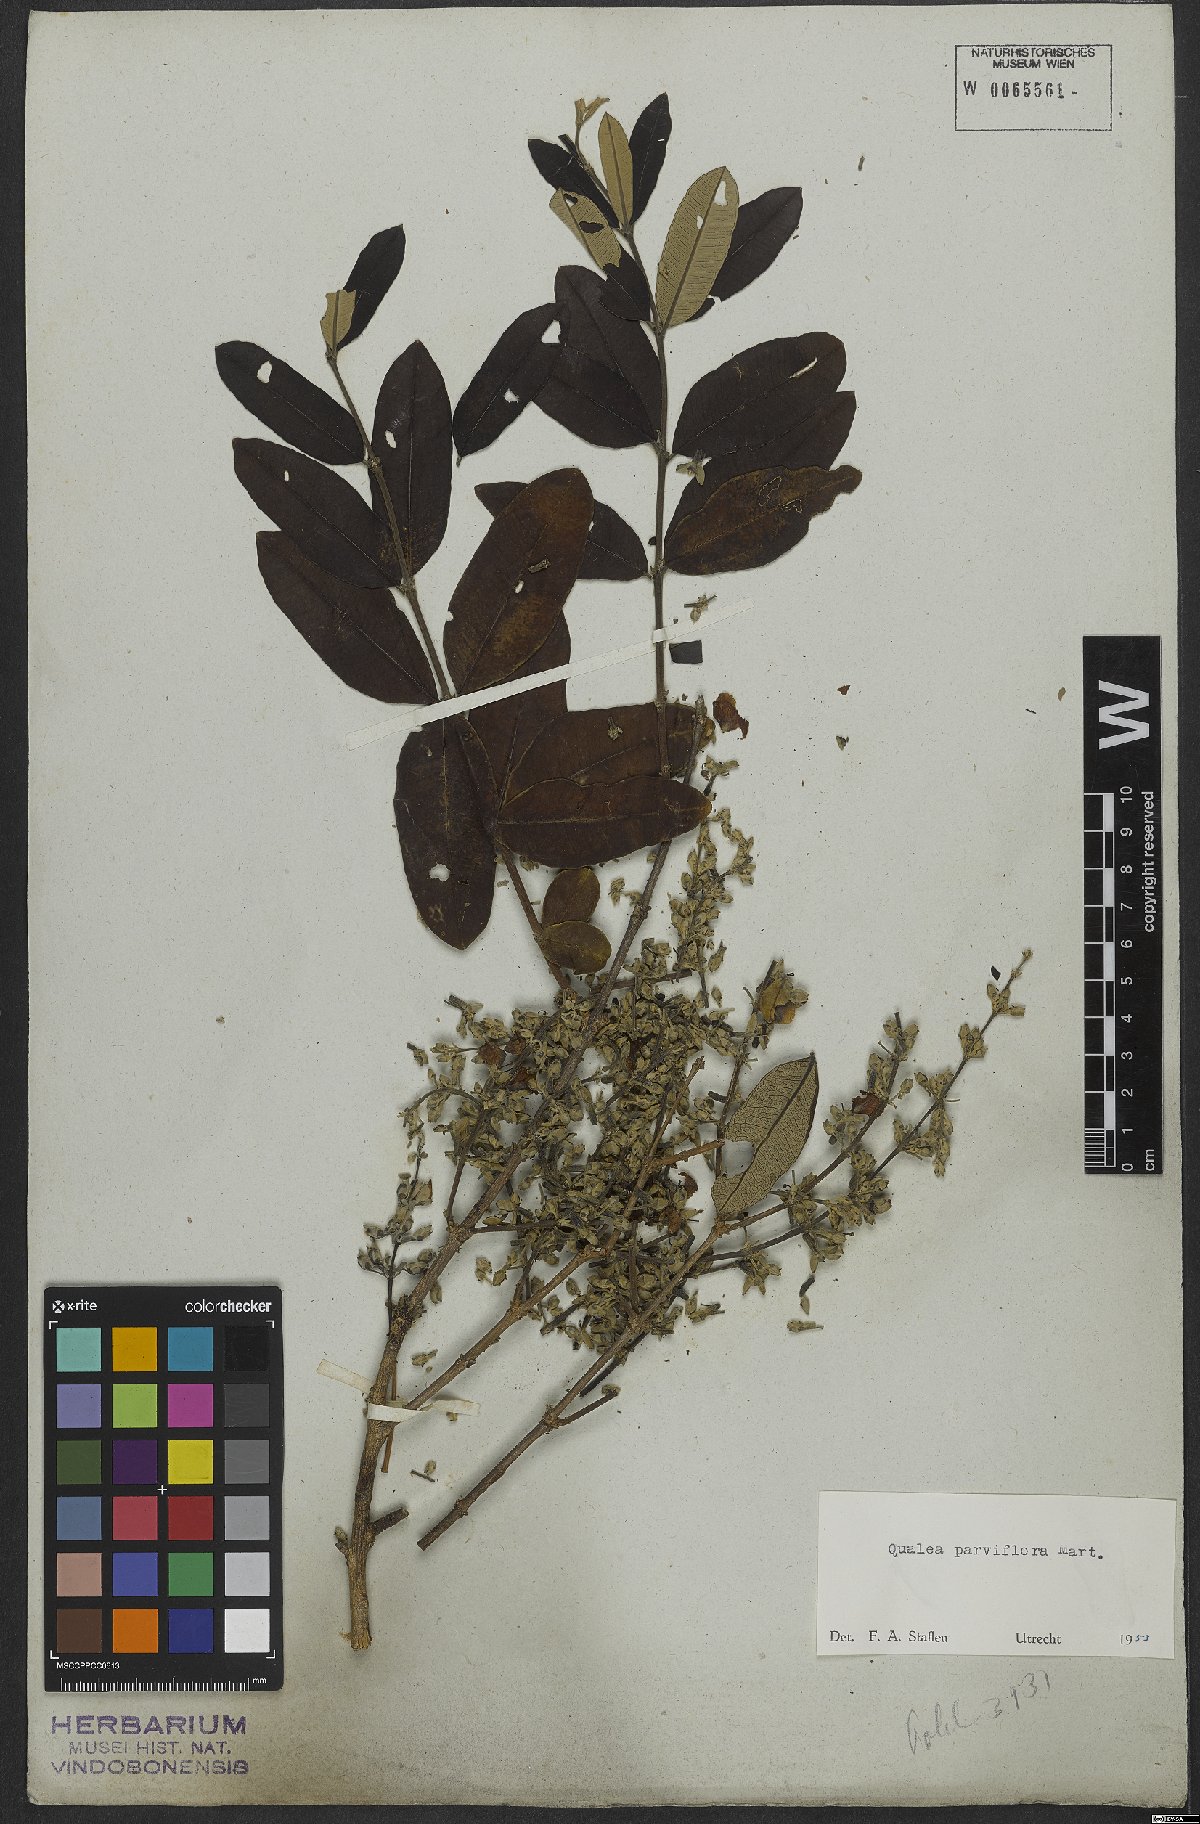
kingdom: Plantae
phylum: Tracheophyta
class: Magnoliopsida
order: Myrtales
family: Vochysiaceae
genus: Qualea
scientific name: Qualea parviflora
